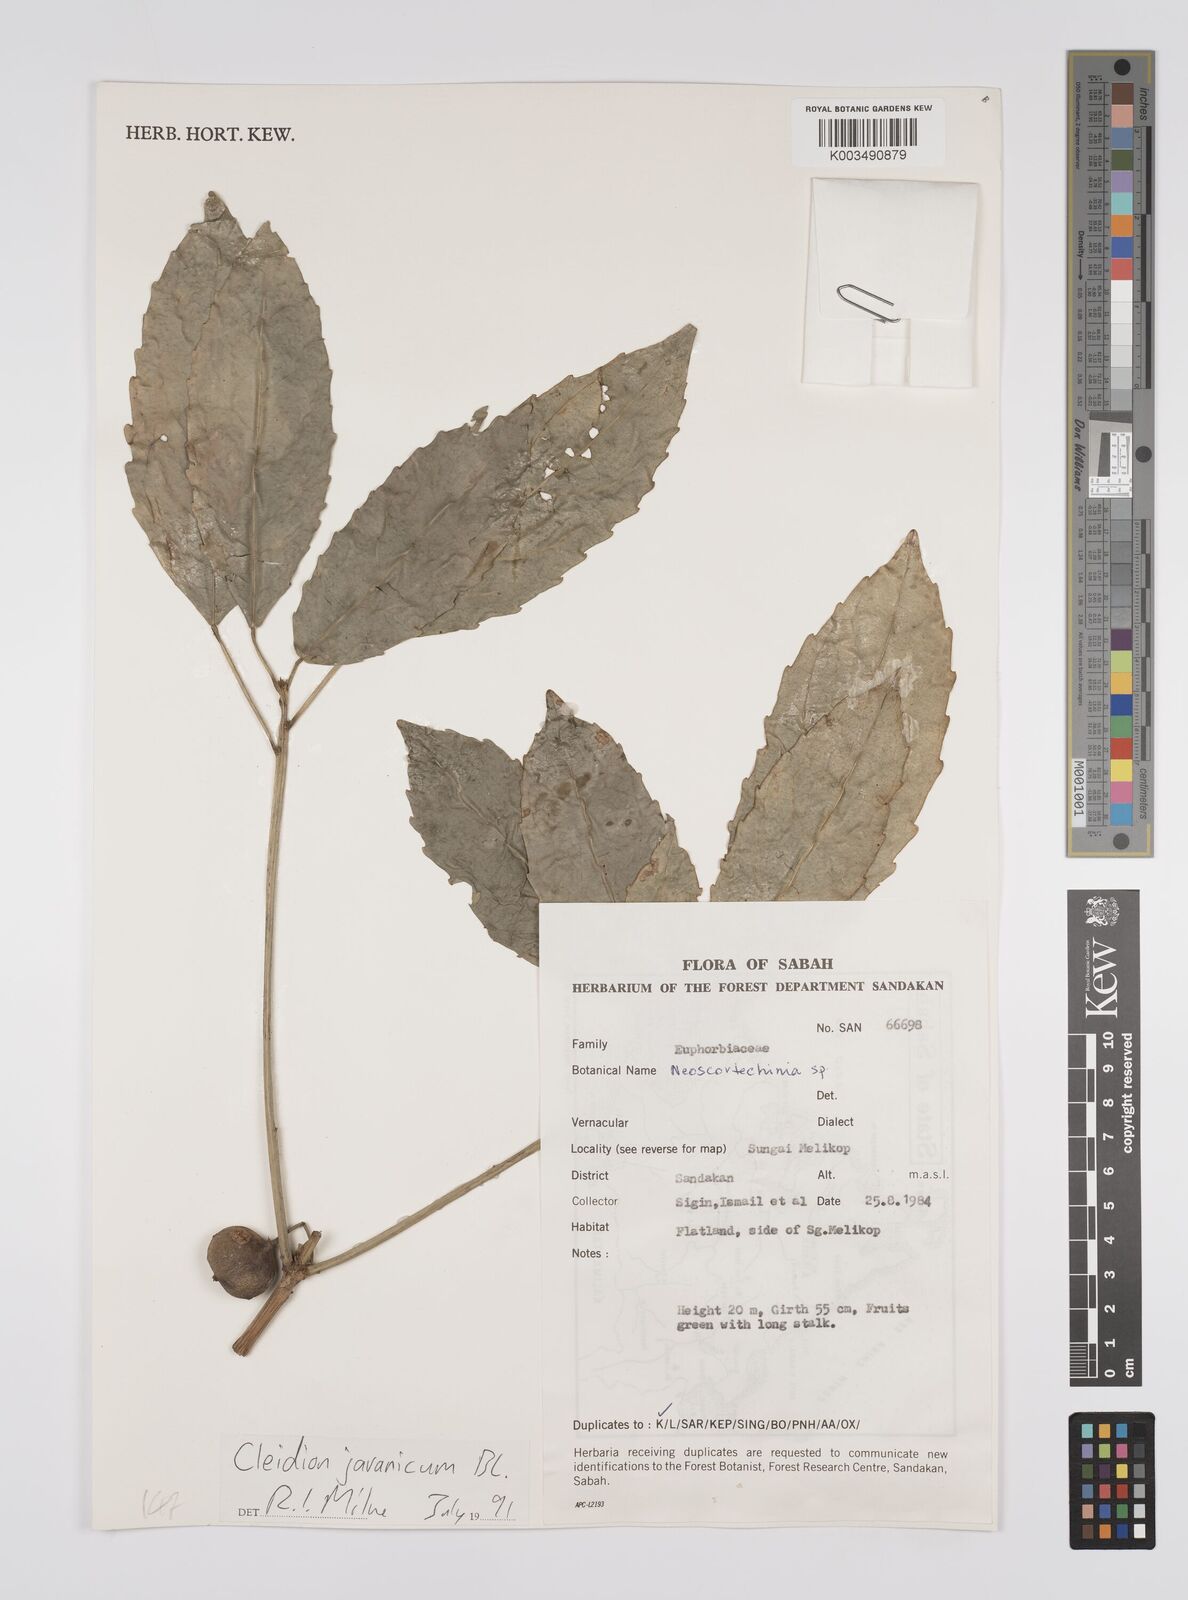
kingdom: Plantae
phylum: Tracheophyta
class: Magnoliopsida
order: Malpighiales
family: Euphorbiaceae
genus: Cleidion
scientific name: Cleidion javanicum
